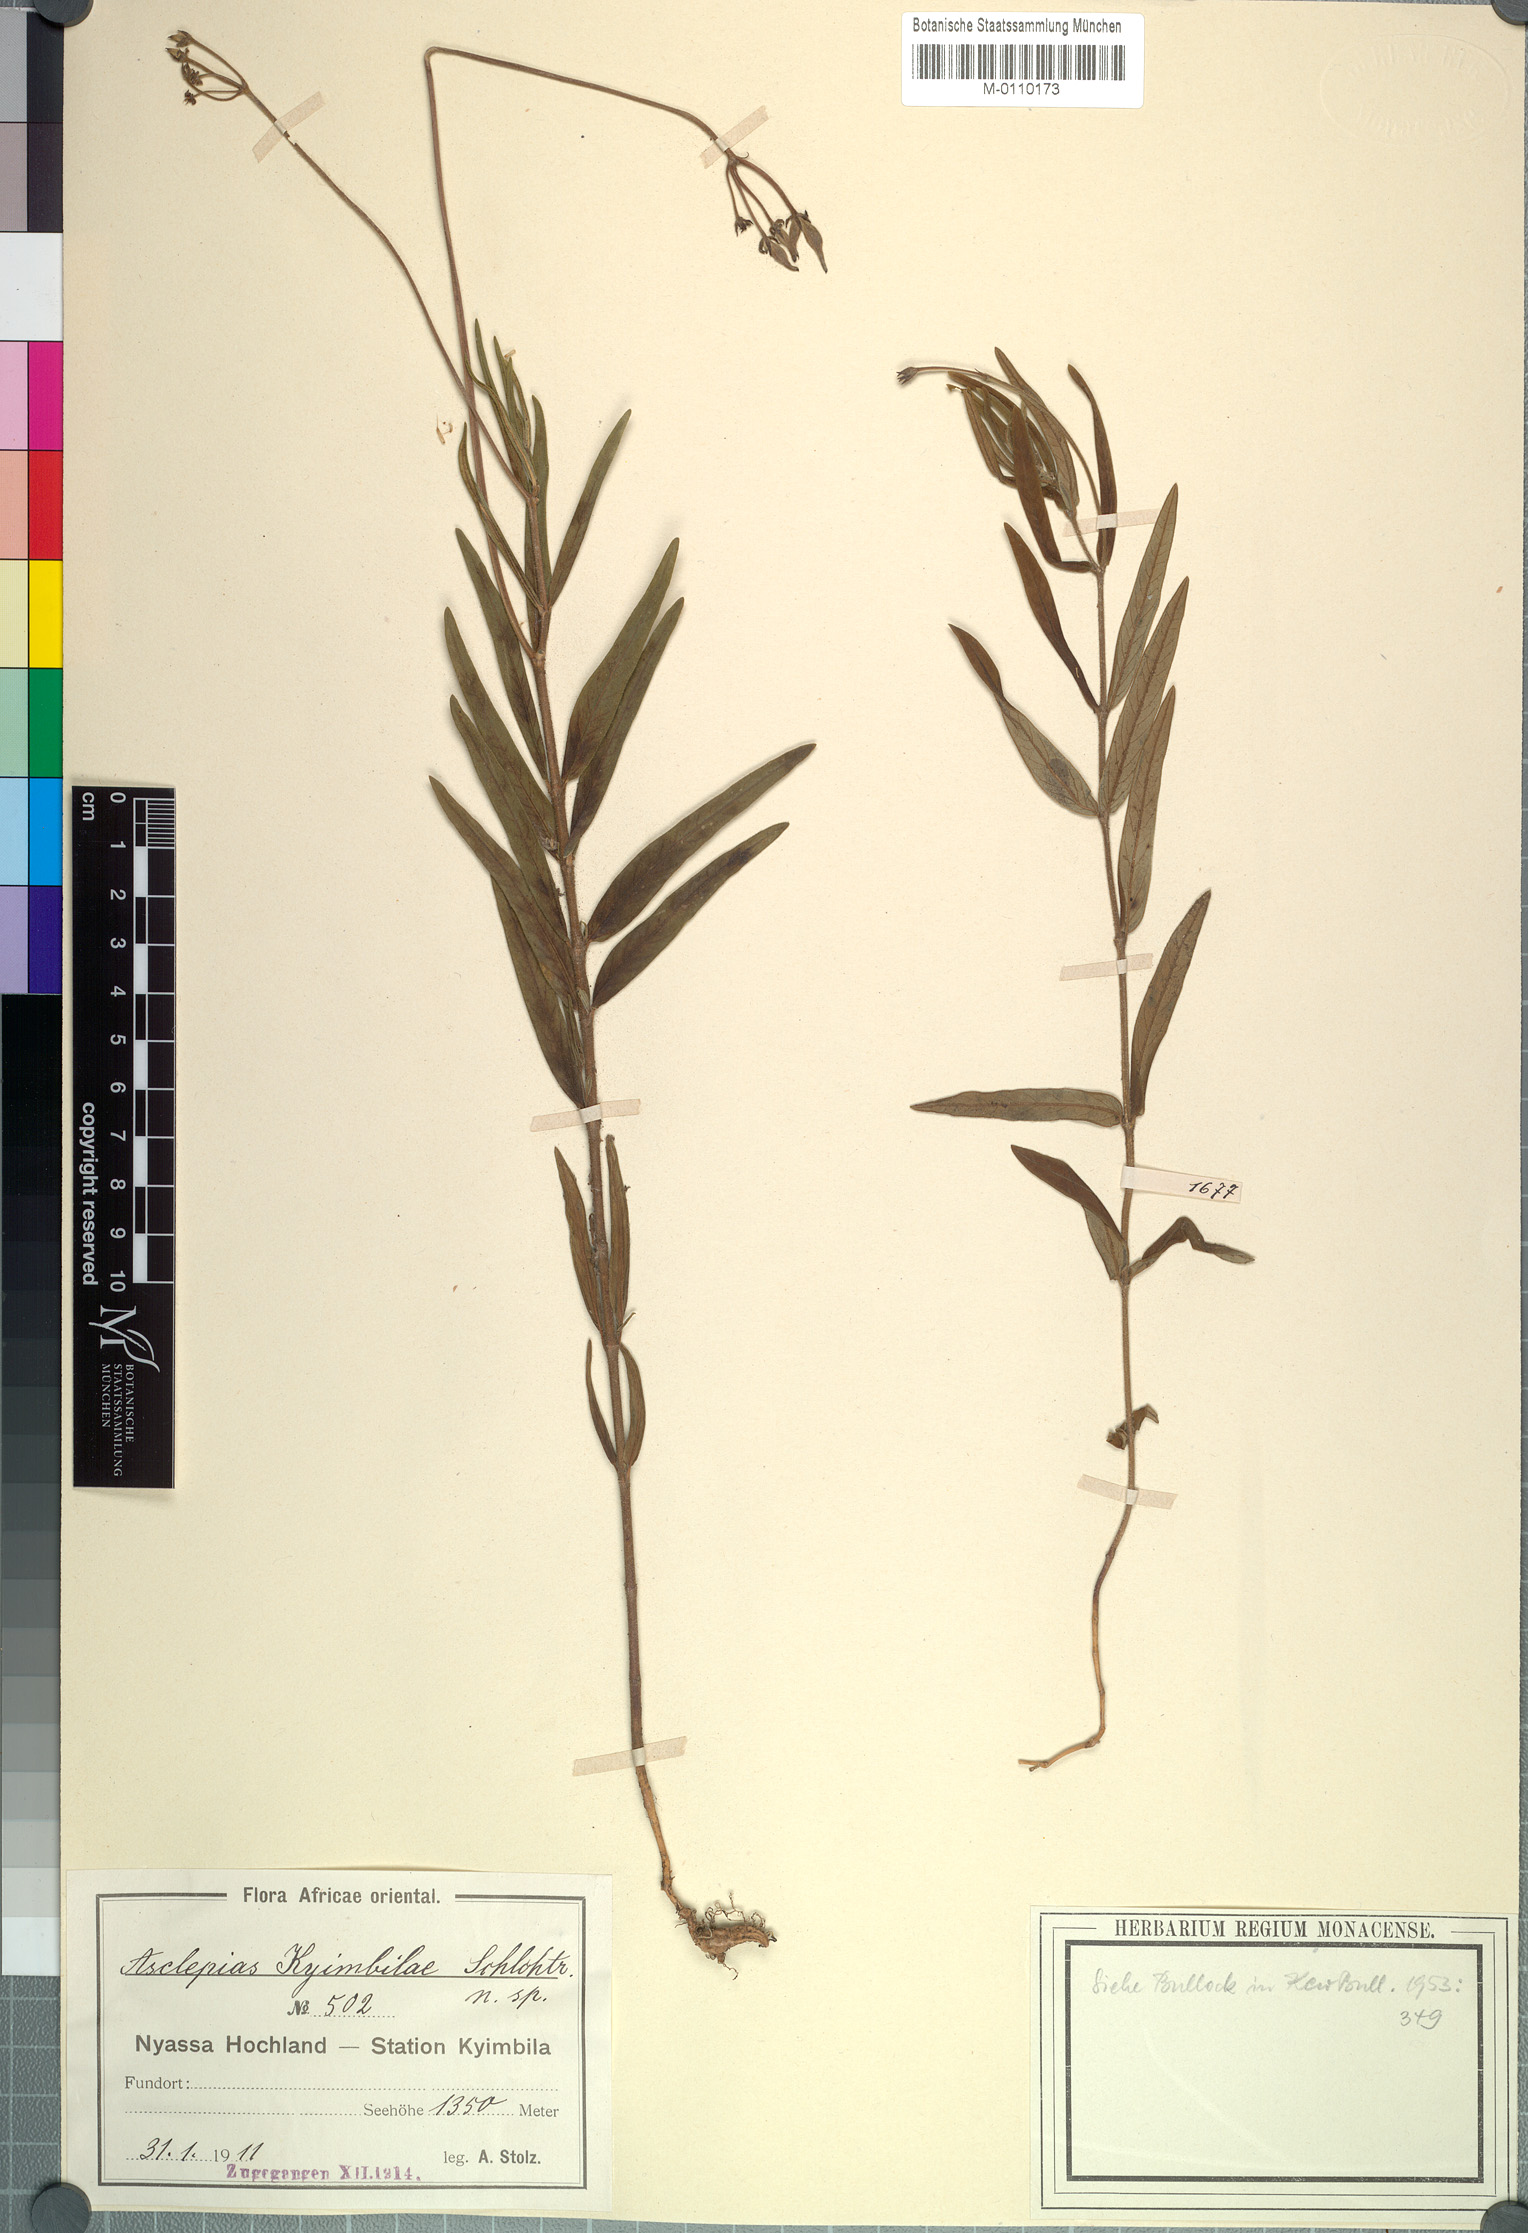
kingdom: Plantae
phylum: Tracheophyta
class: Magnoliopsida
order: Gentianales
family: Apocynaceae
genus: Asclepias
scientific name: Asclepias palustris
